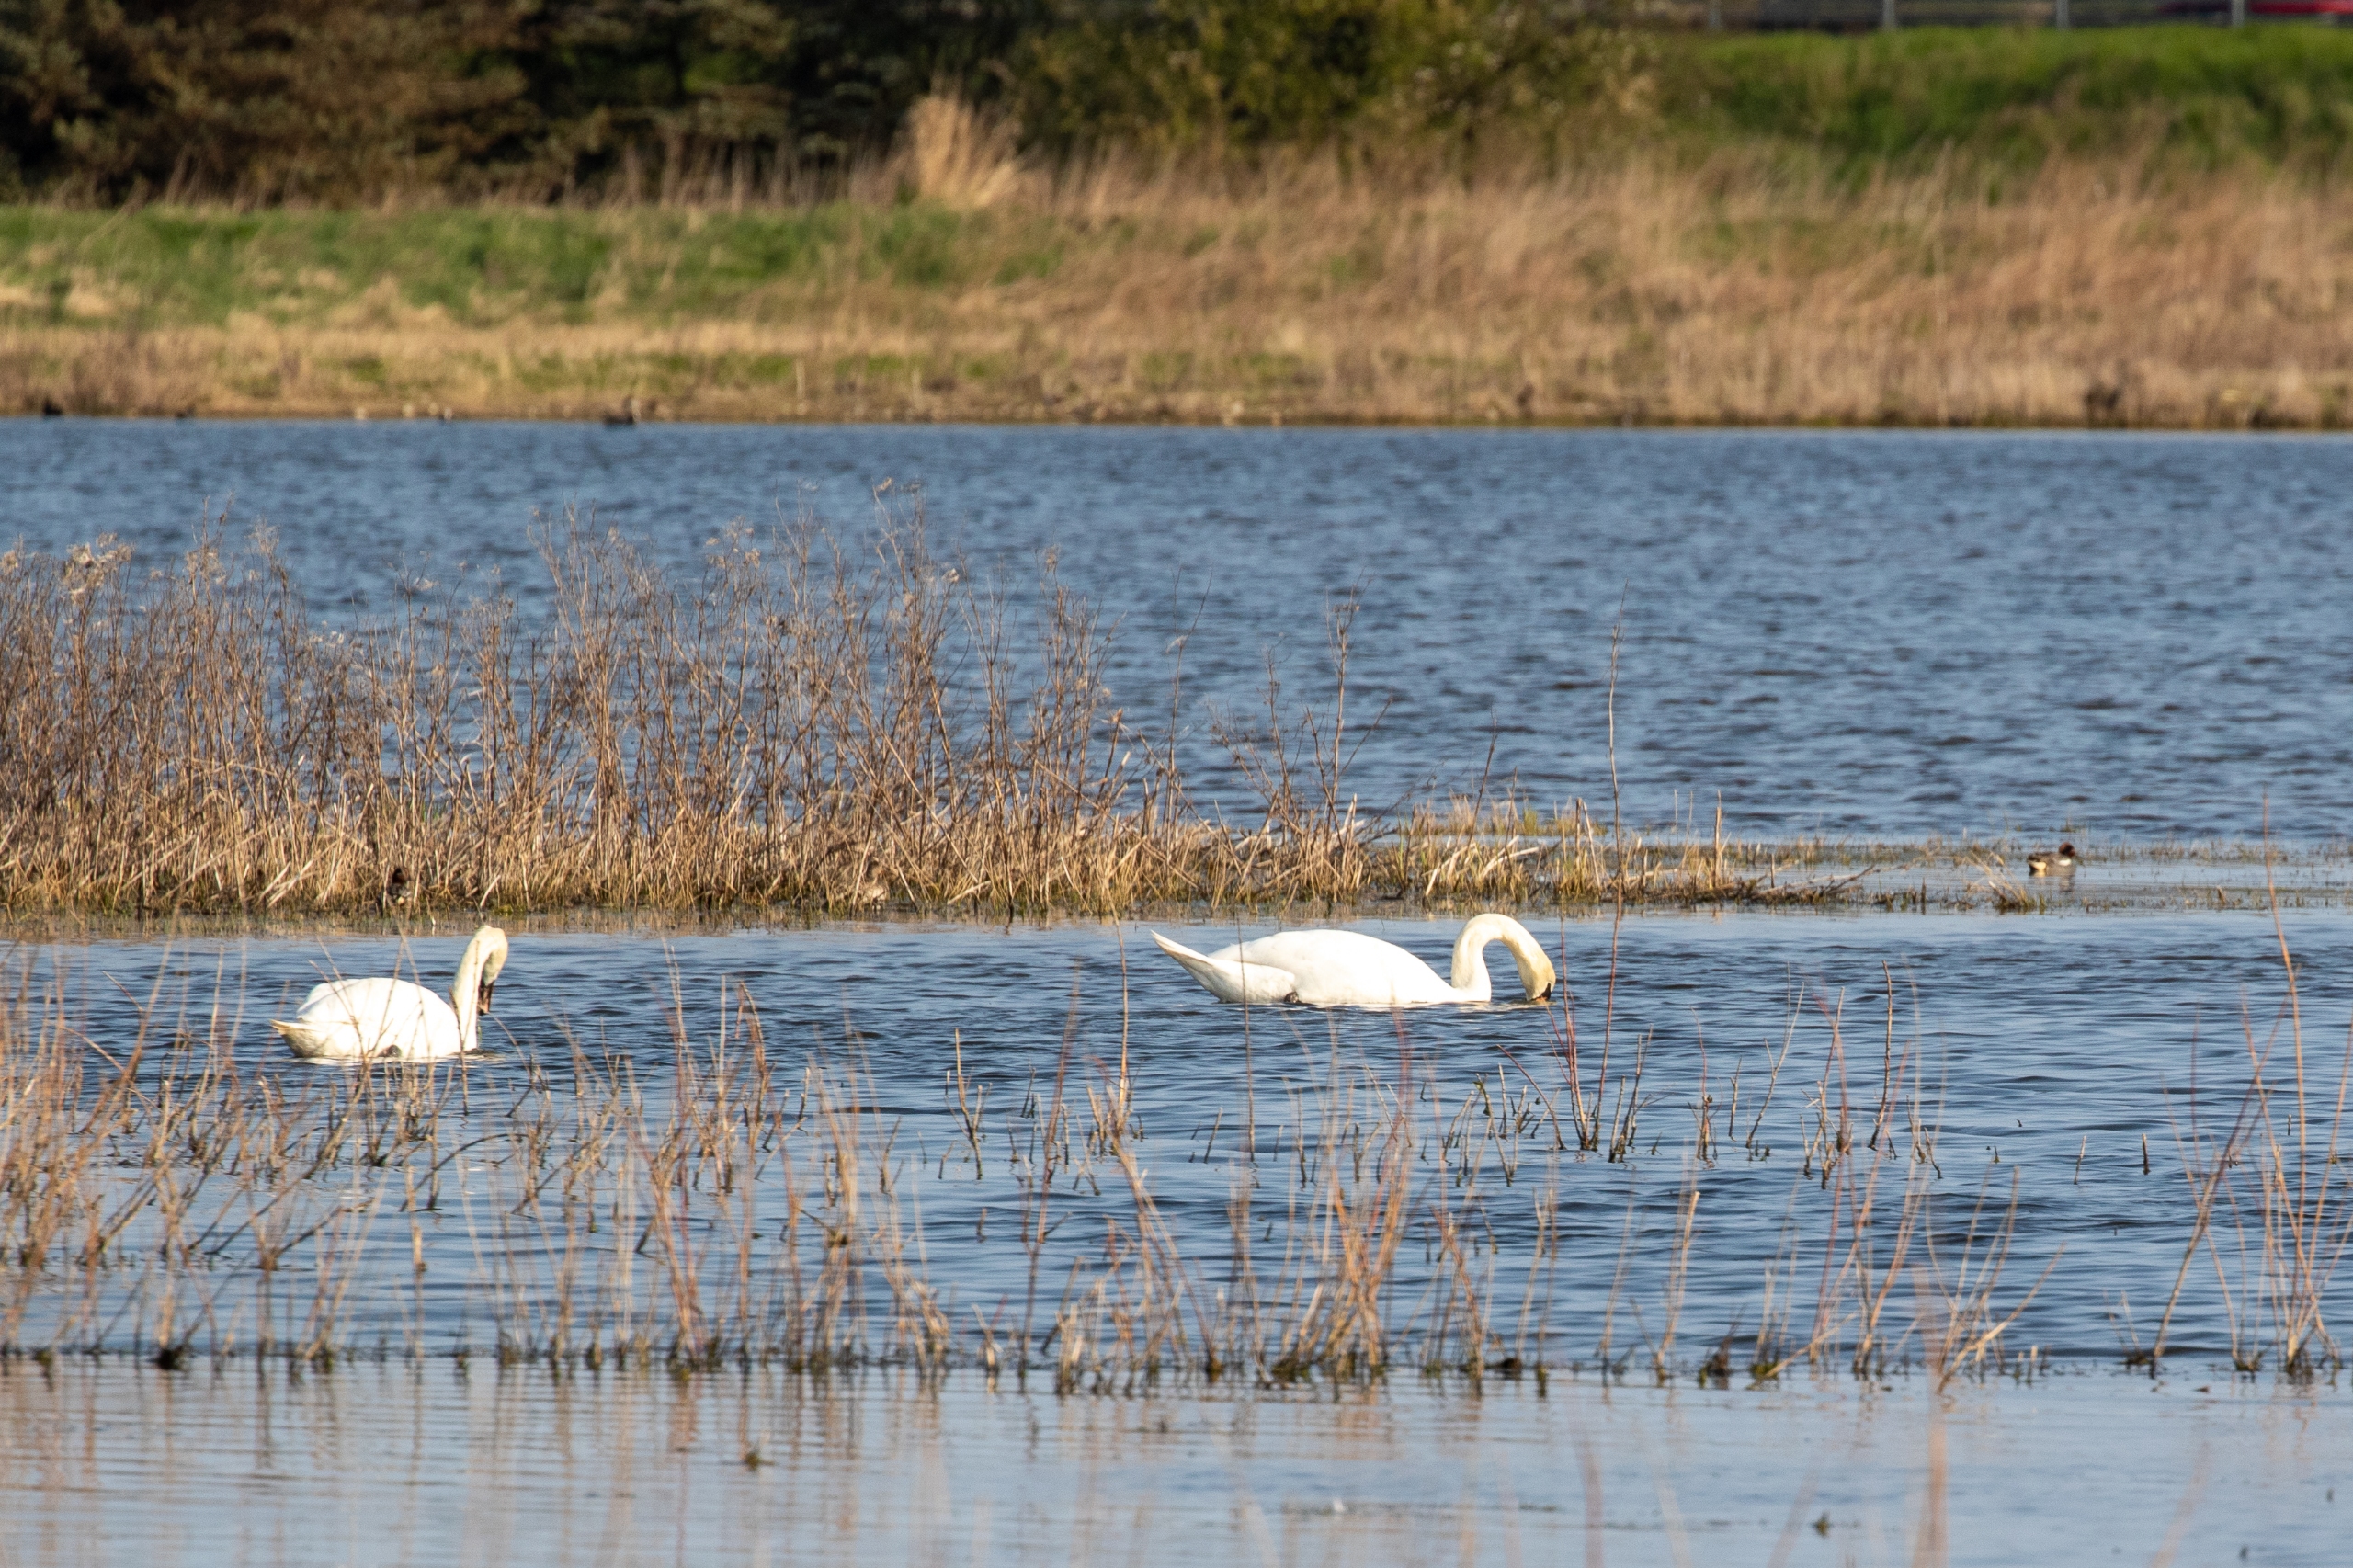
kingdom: Animalia
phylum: Chordata
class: Aves
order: Anseriformes
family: Anatidae
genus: Cygnus
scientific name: Cygnus olor
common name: Knopsvane
